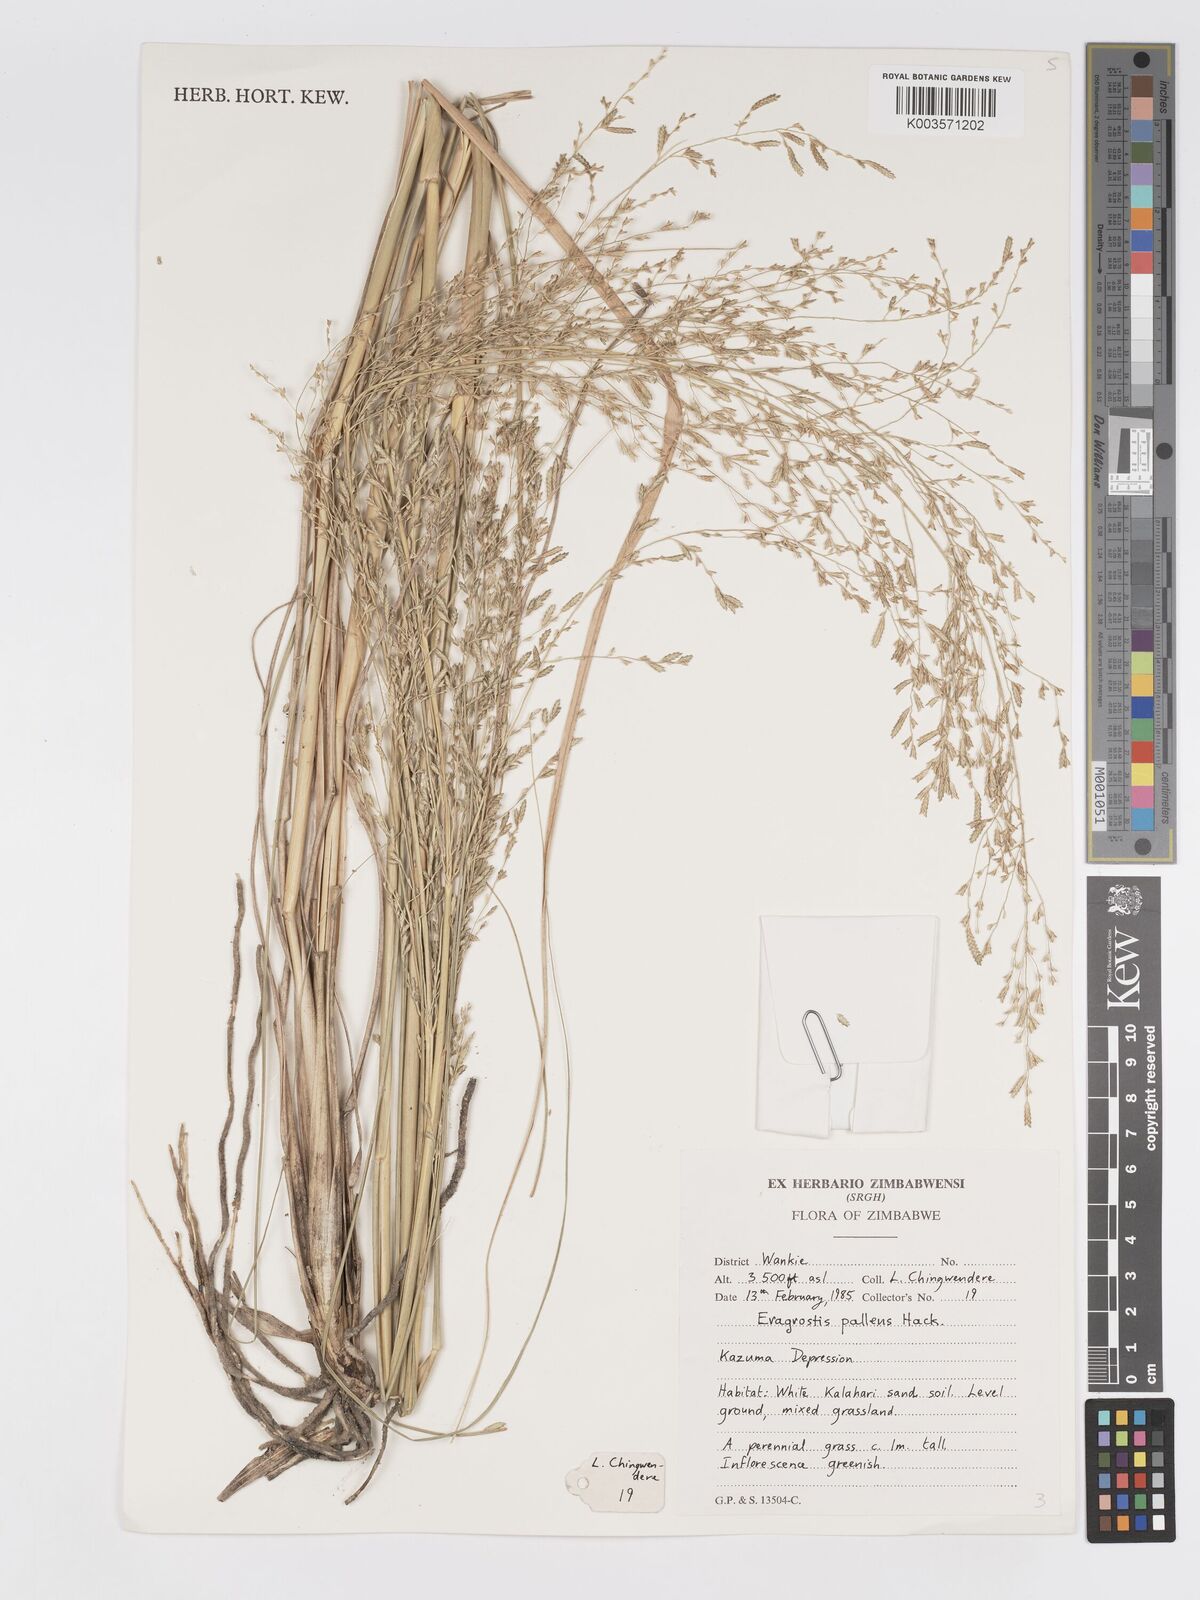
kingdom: Plantae
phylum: Tracheophyta
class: Liliopsida
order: Poales
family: Poaceae
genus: Eragrostis
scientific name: Eragrostis pallens
